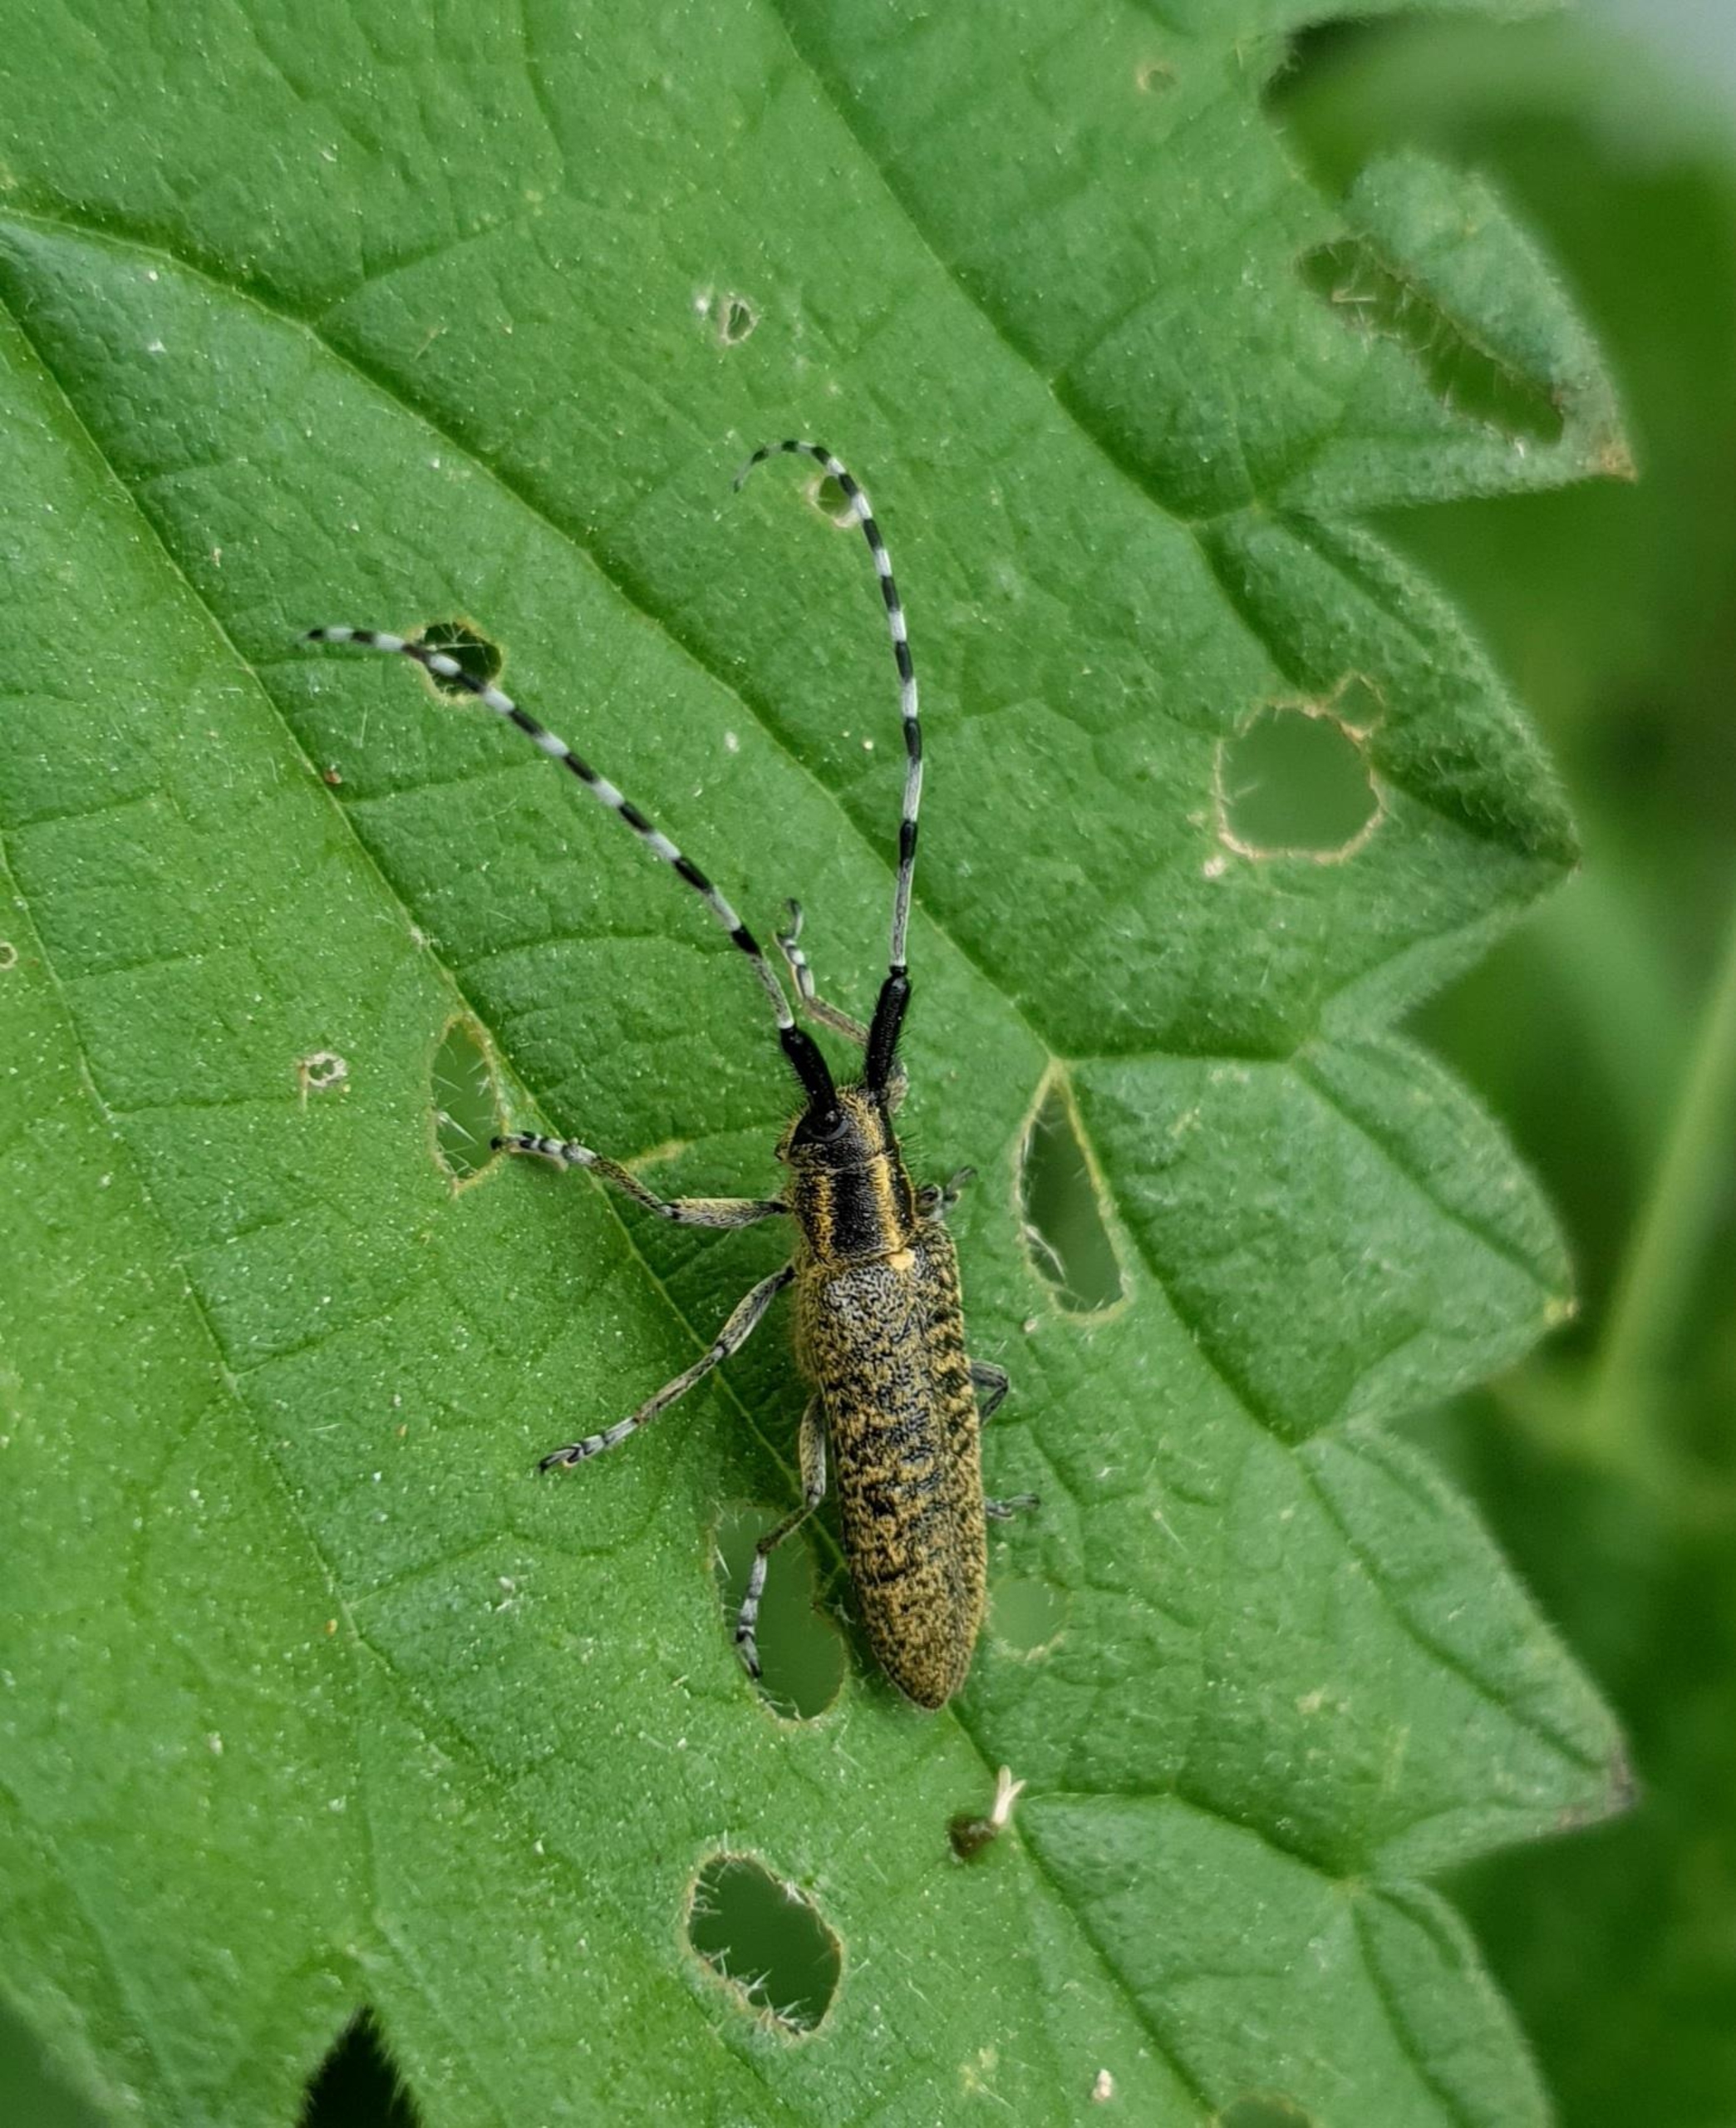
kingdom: Animalia
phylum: Arthropoda
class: Insecta
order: Coleoptera
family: Cerambycidae
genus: Agapanthia
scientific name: Agapanthia villosoviridescens
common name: Tidselbuk
